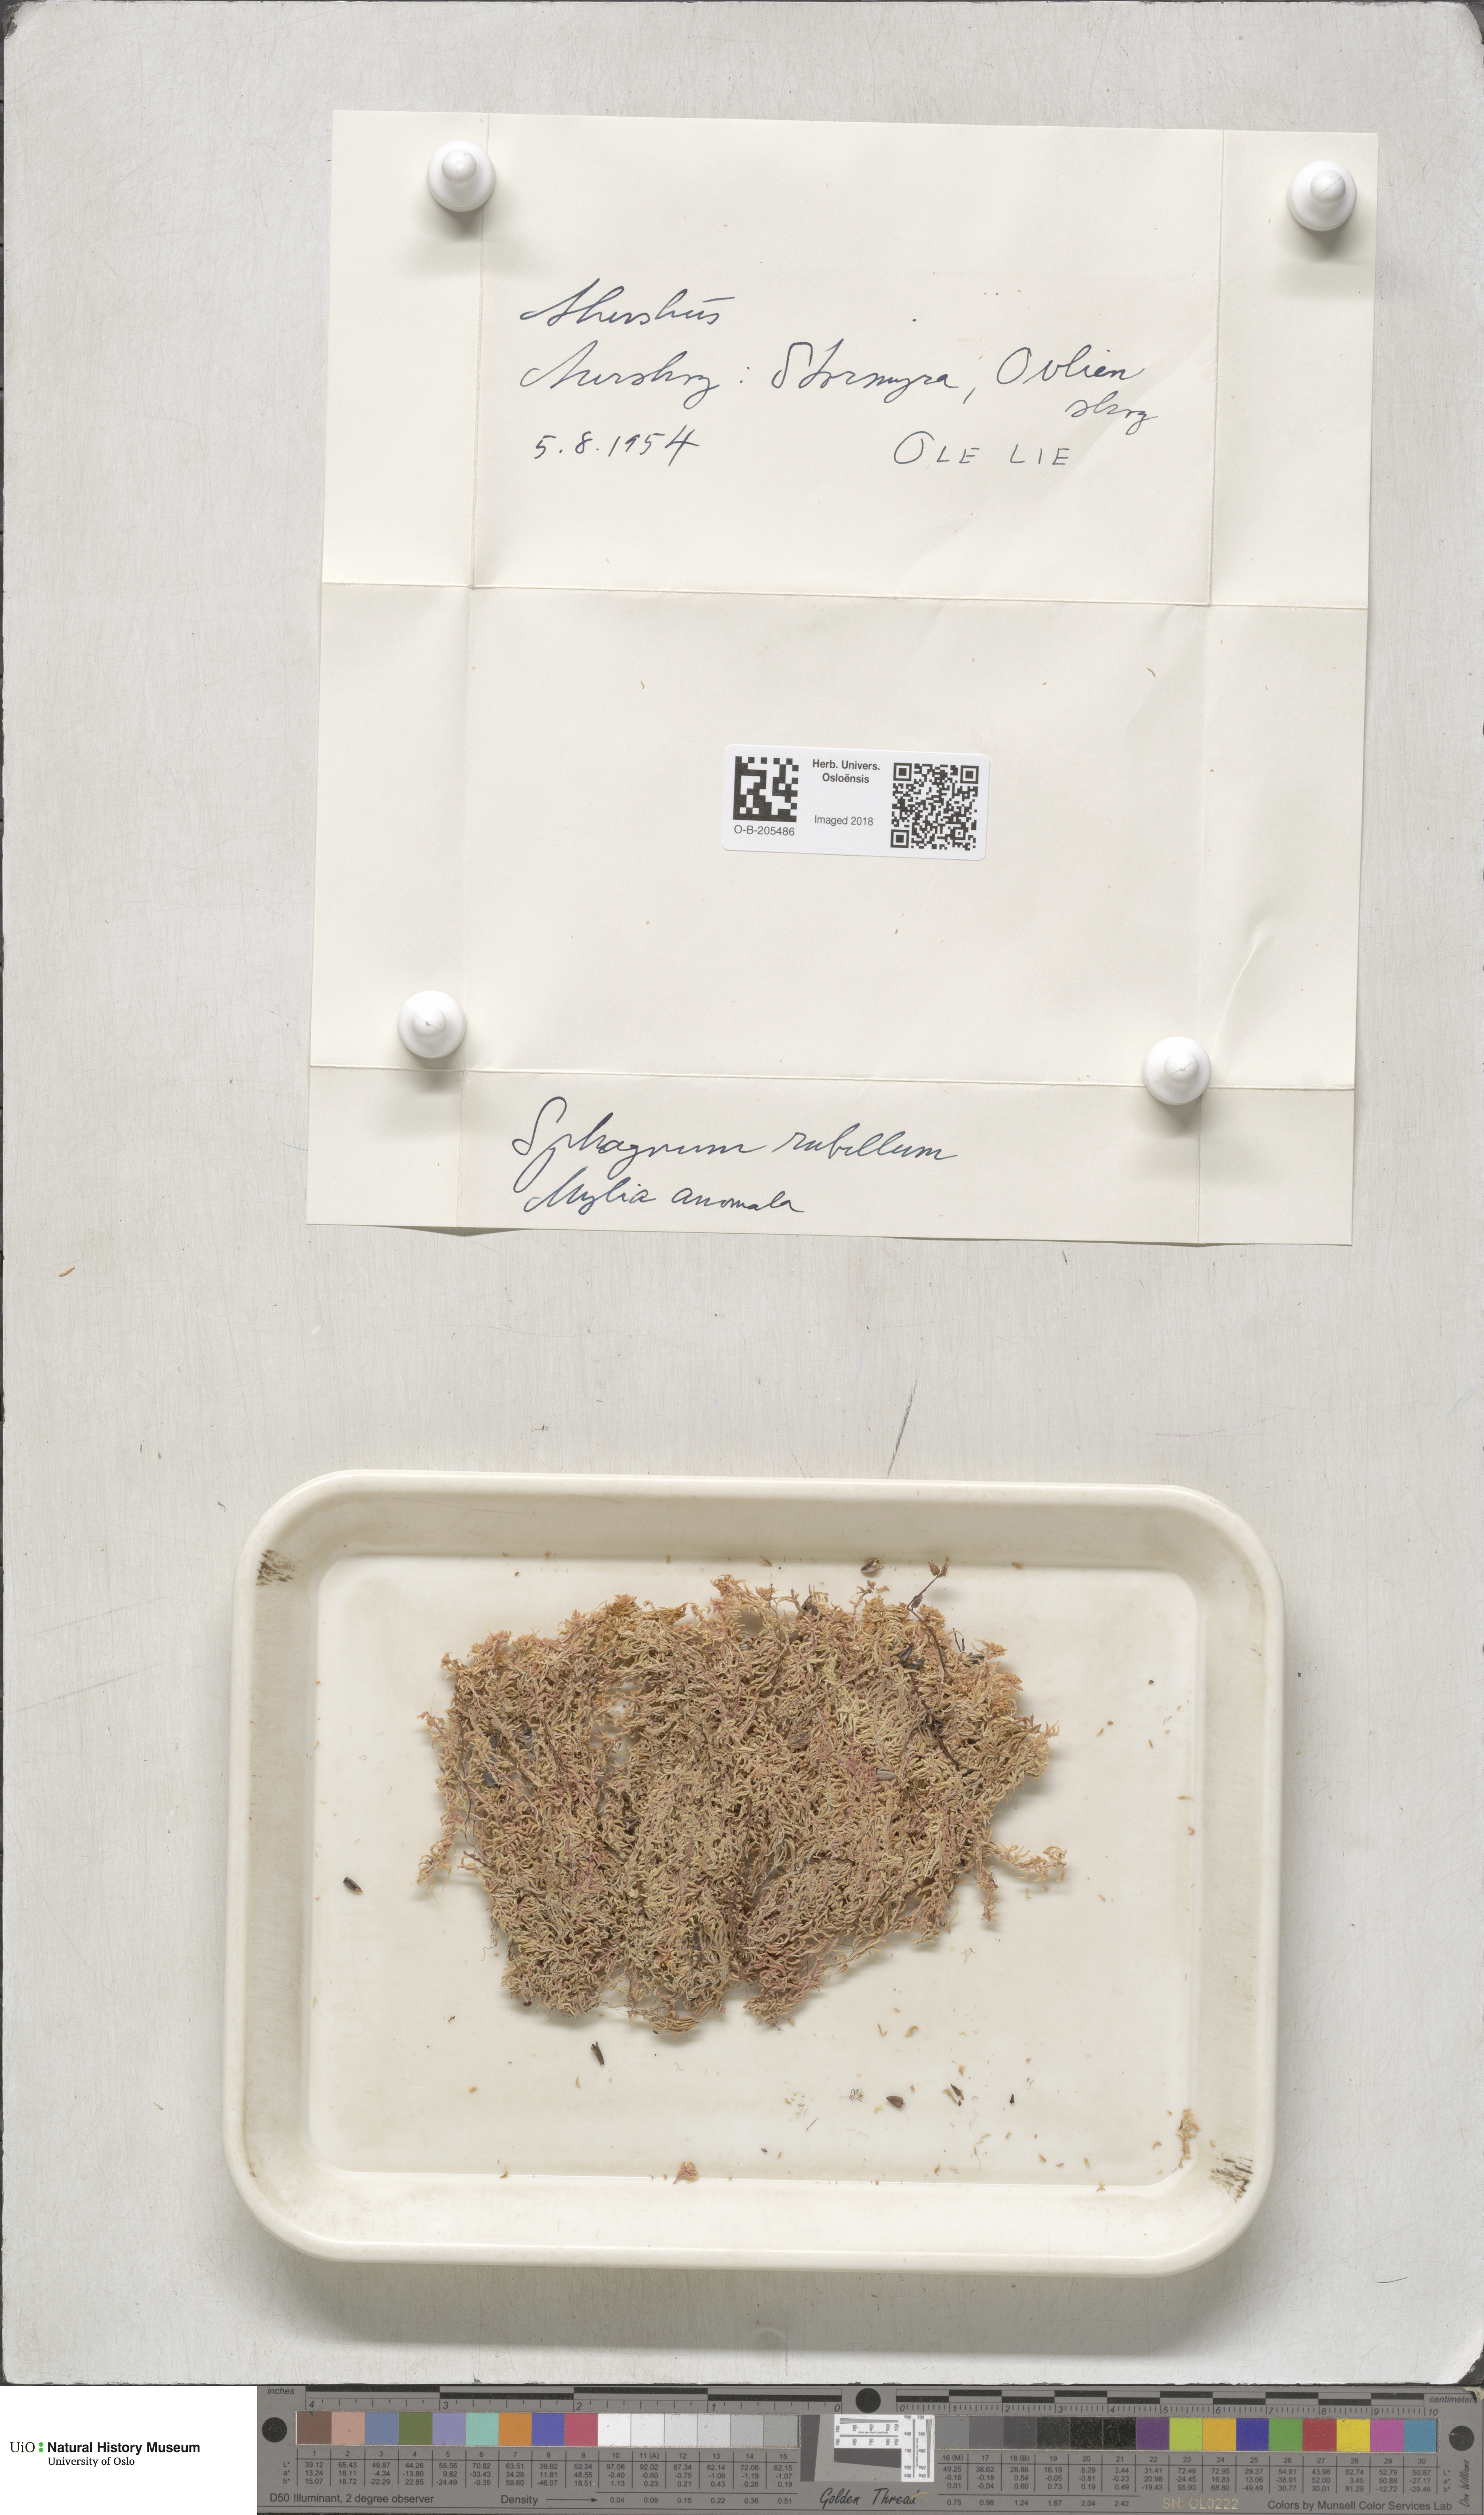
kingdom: Plantae
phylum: Bryophyta
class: Sphagnopsida
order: Sphagnales
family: Sphagnaceae
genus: Sphagnum
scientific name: Sphagnum rubellum
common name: Red peat moss
